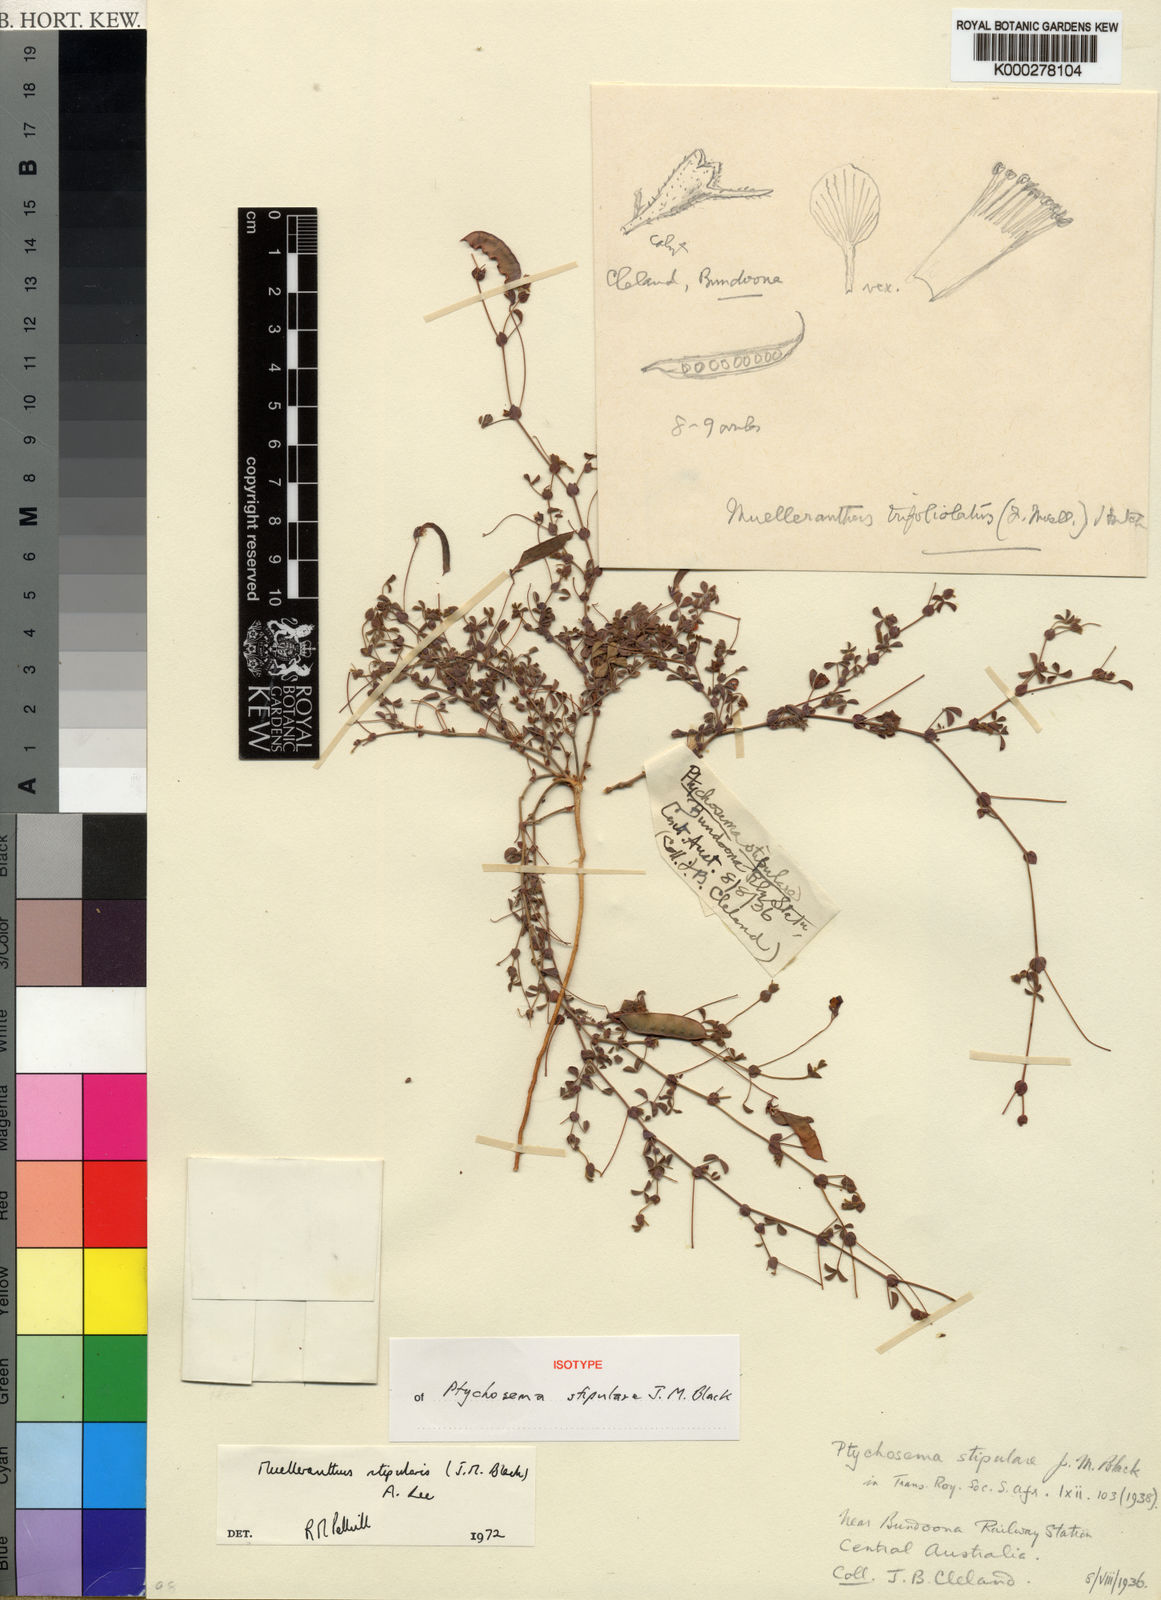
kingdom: Plantae
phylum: Tracheophyta
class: Magnoliopsida
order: Fabales
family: Fabaceae
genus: Muelleranthus
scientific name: Muelleranthus stipularis
